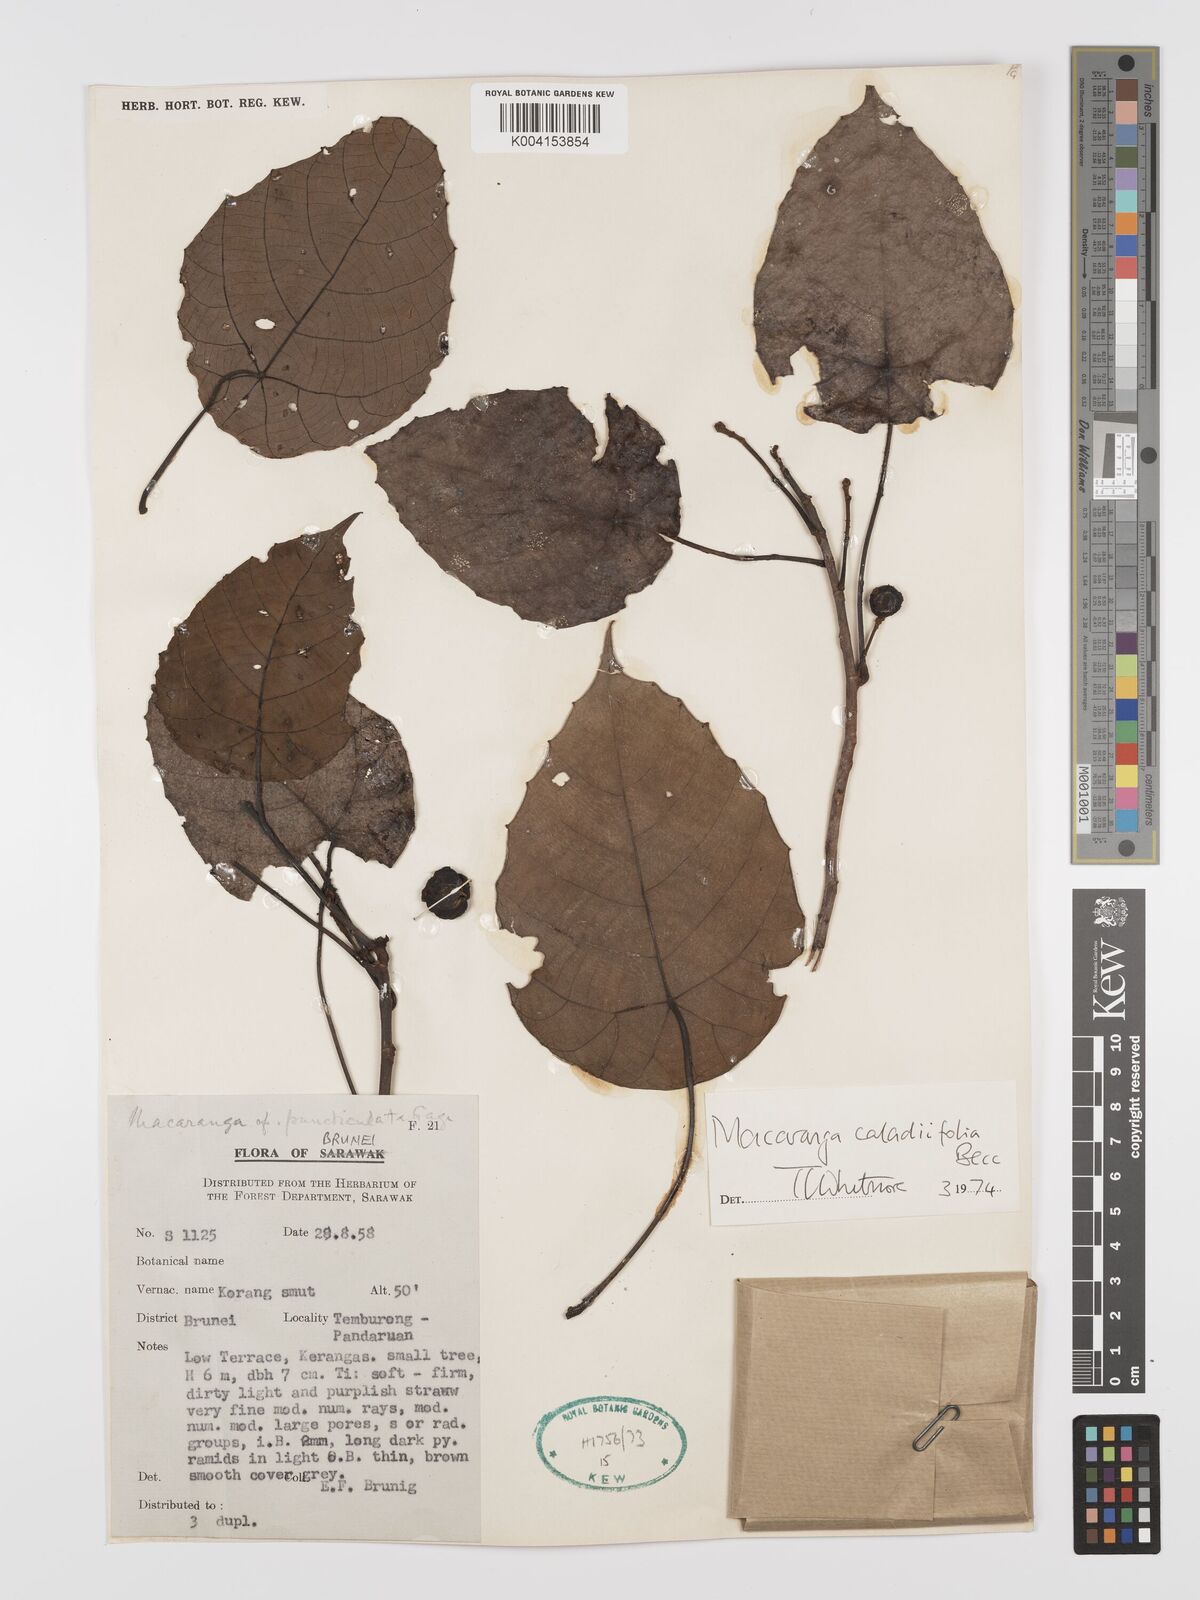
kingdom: Plantae
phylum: Tracheophyta
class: Magnoliopsida
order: Malpighiales
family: Euphorbiaceae
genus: Macaranga
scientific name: Macaranga caladiifolia
